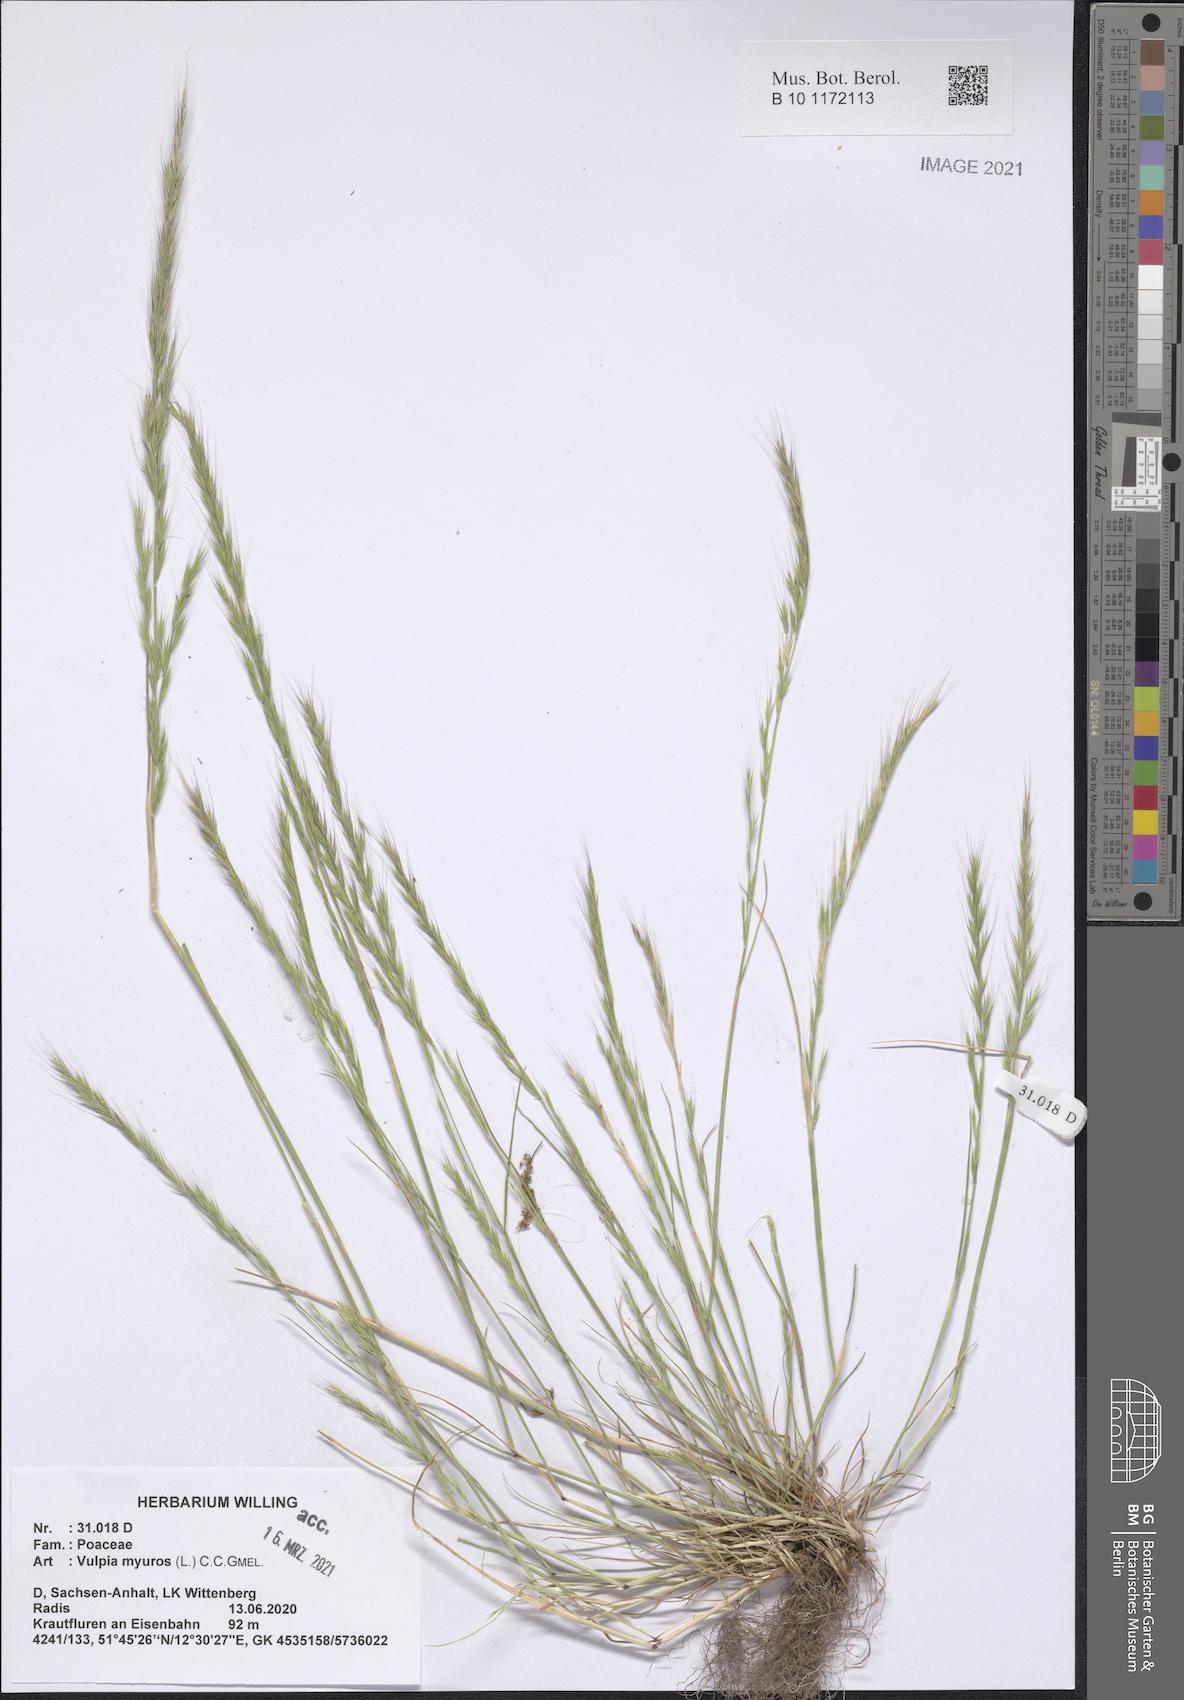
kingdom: Plantae
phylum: Tracheophyta
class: Liliopsida
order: Poales
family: Poaceae
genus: Festuca
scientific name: Festuca myuros
